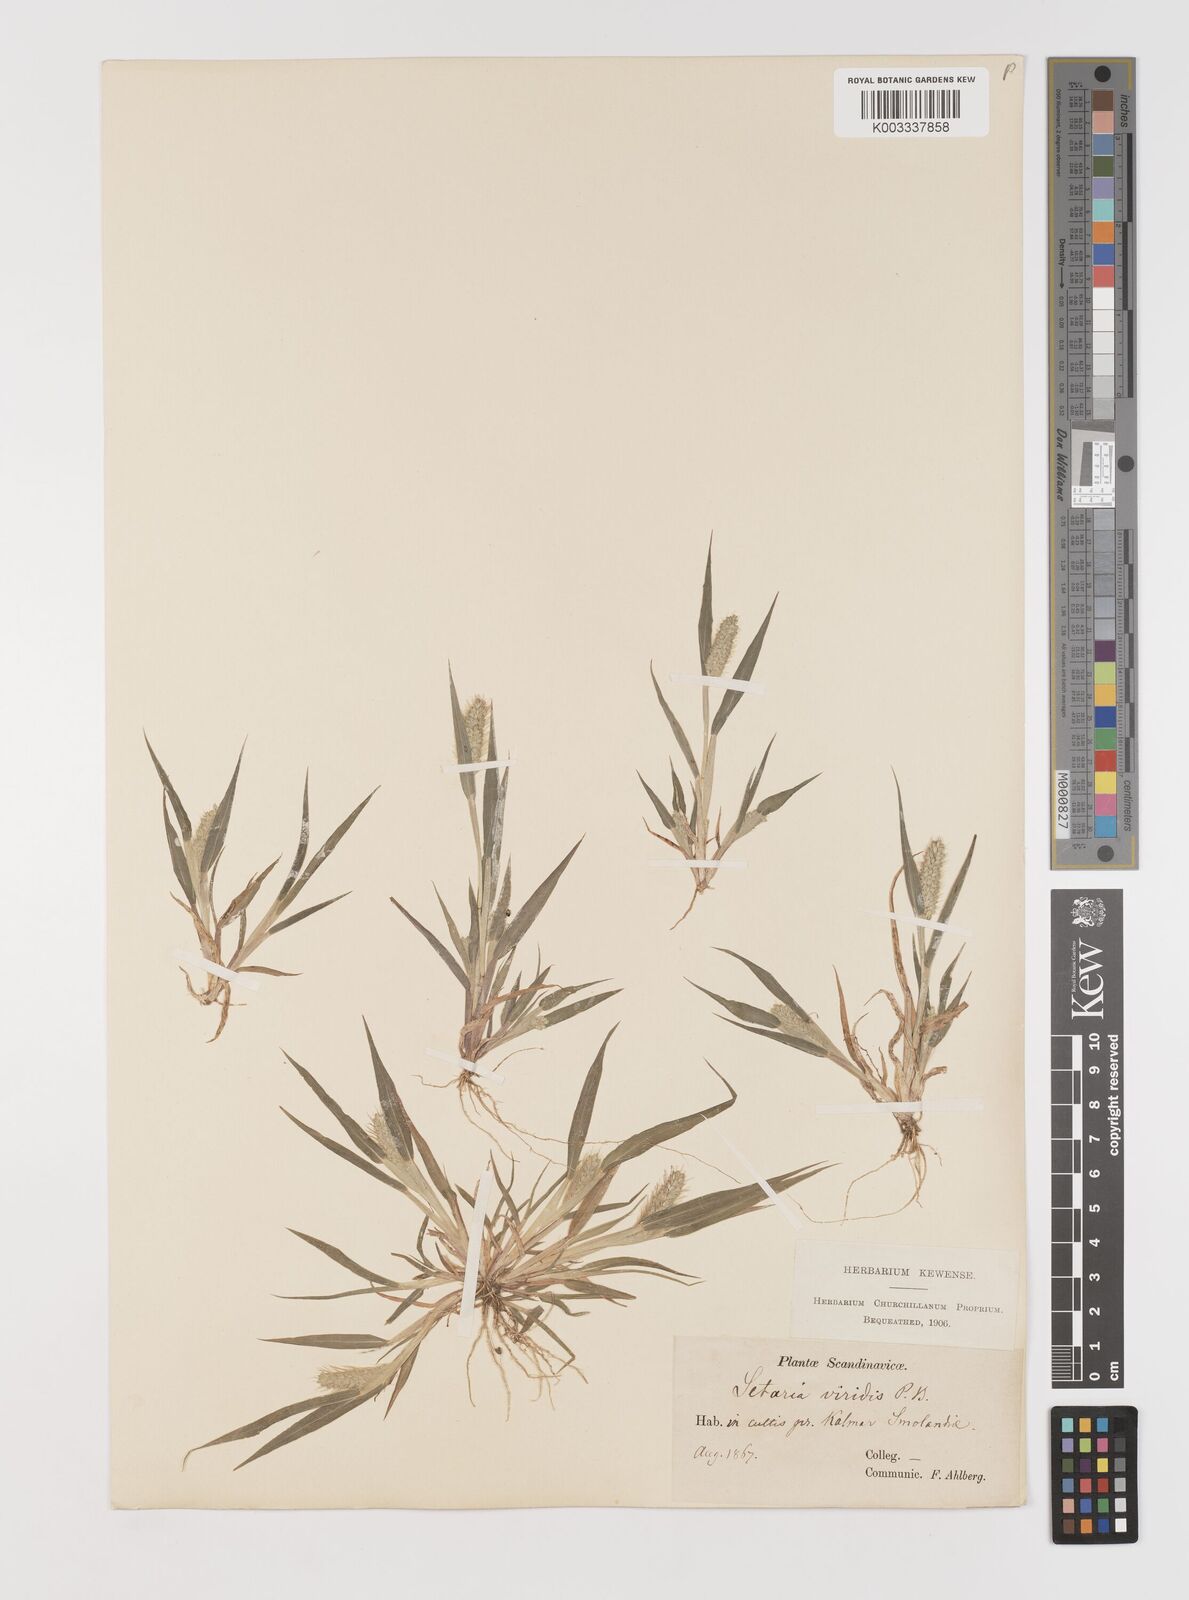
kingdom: Plantae
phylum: Tracheophyta
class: Liliopsida
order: Poales
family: Poaceae
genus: Setaria
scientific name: Setaria viridis
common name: Green bristlegrass
